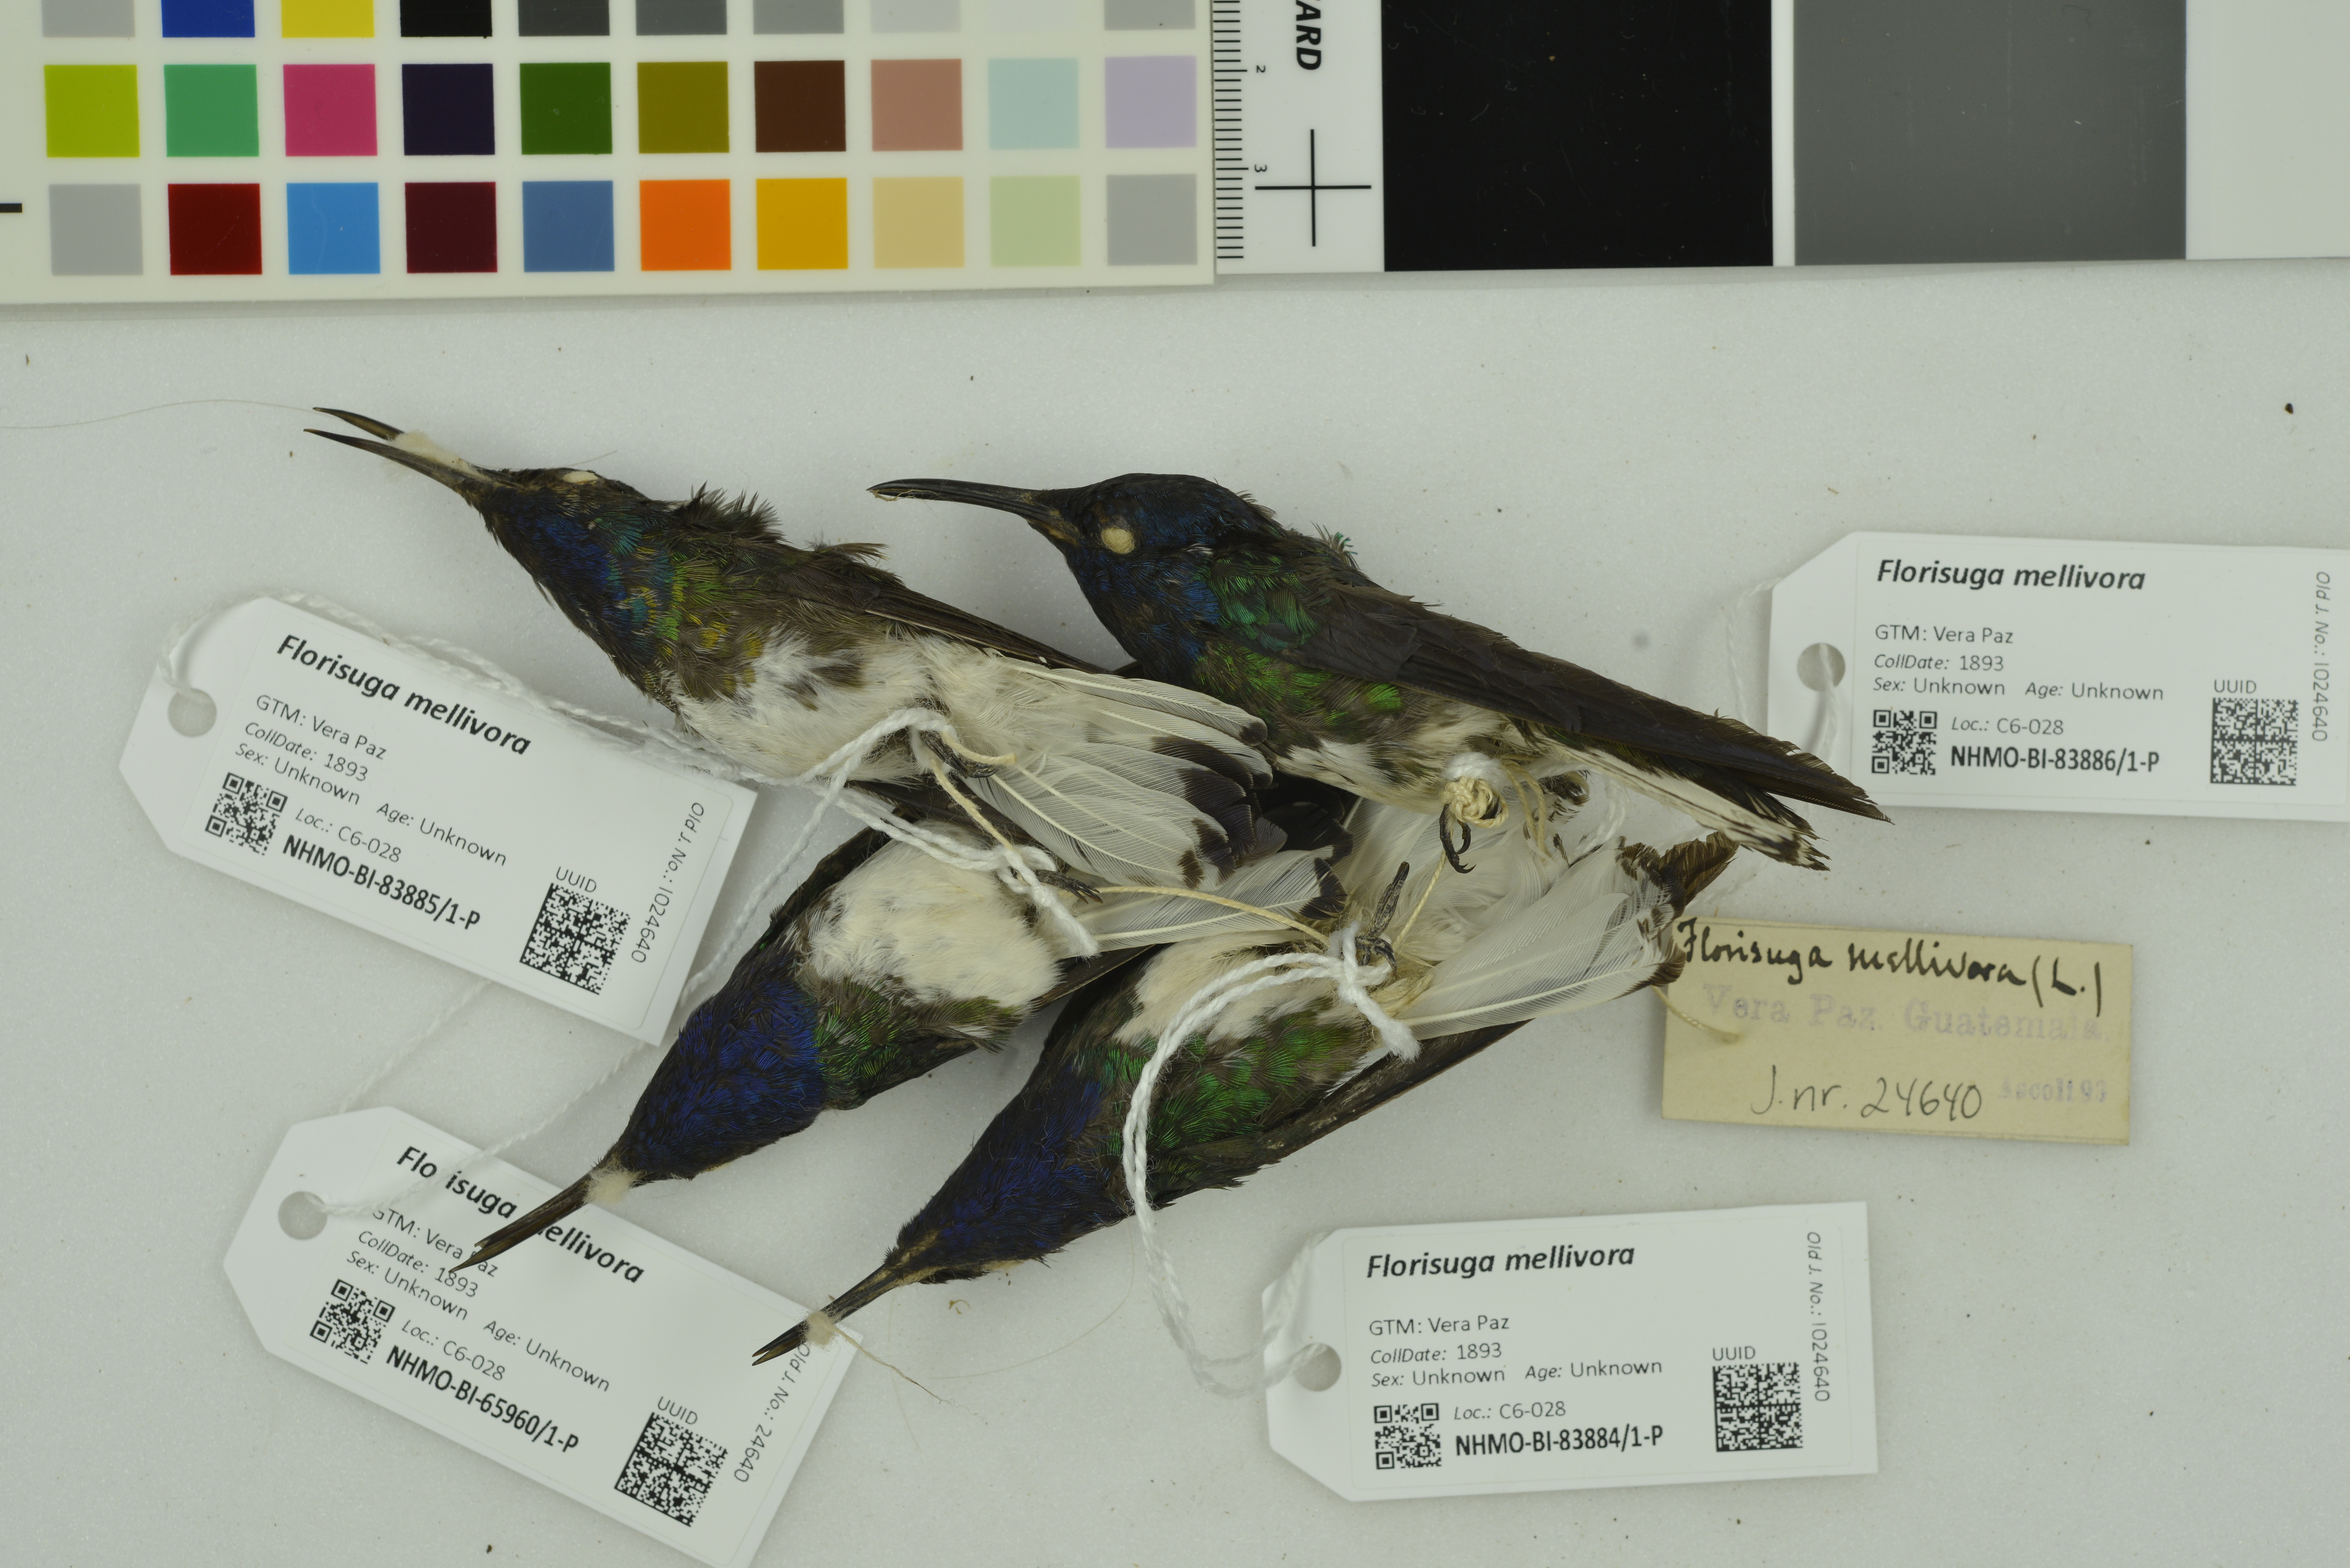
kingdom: Animalia
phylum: Chordata
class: Aves
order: Apodiformes
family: Trochilidae
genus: Florisuga
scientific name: Florisuga mellivora
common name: White-necked jacobin
